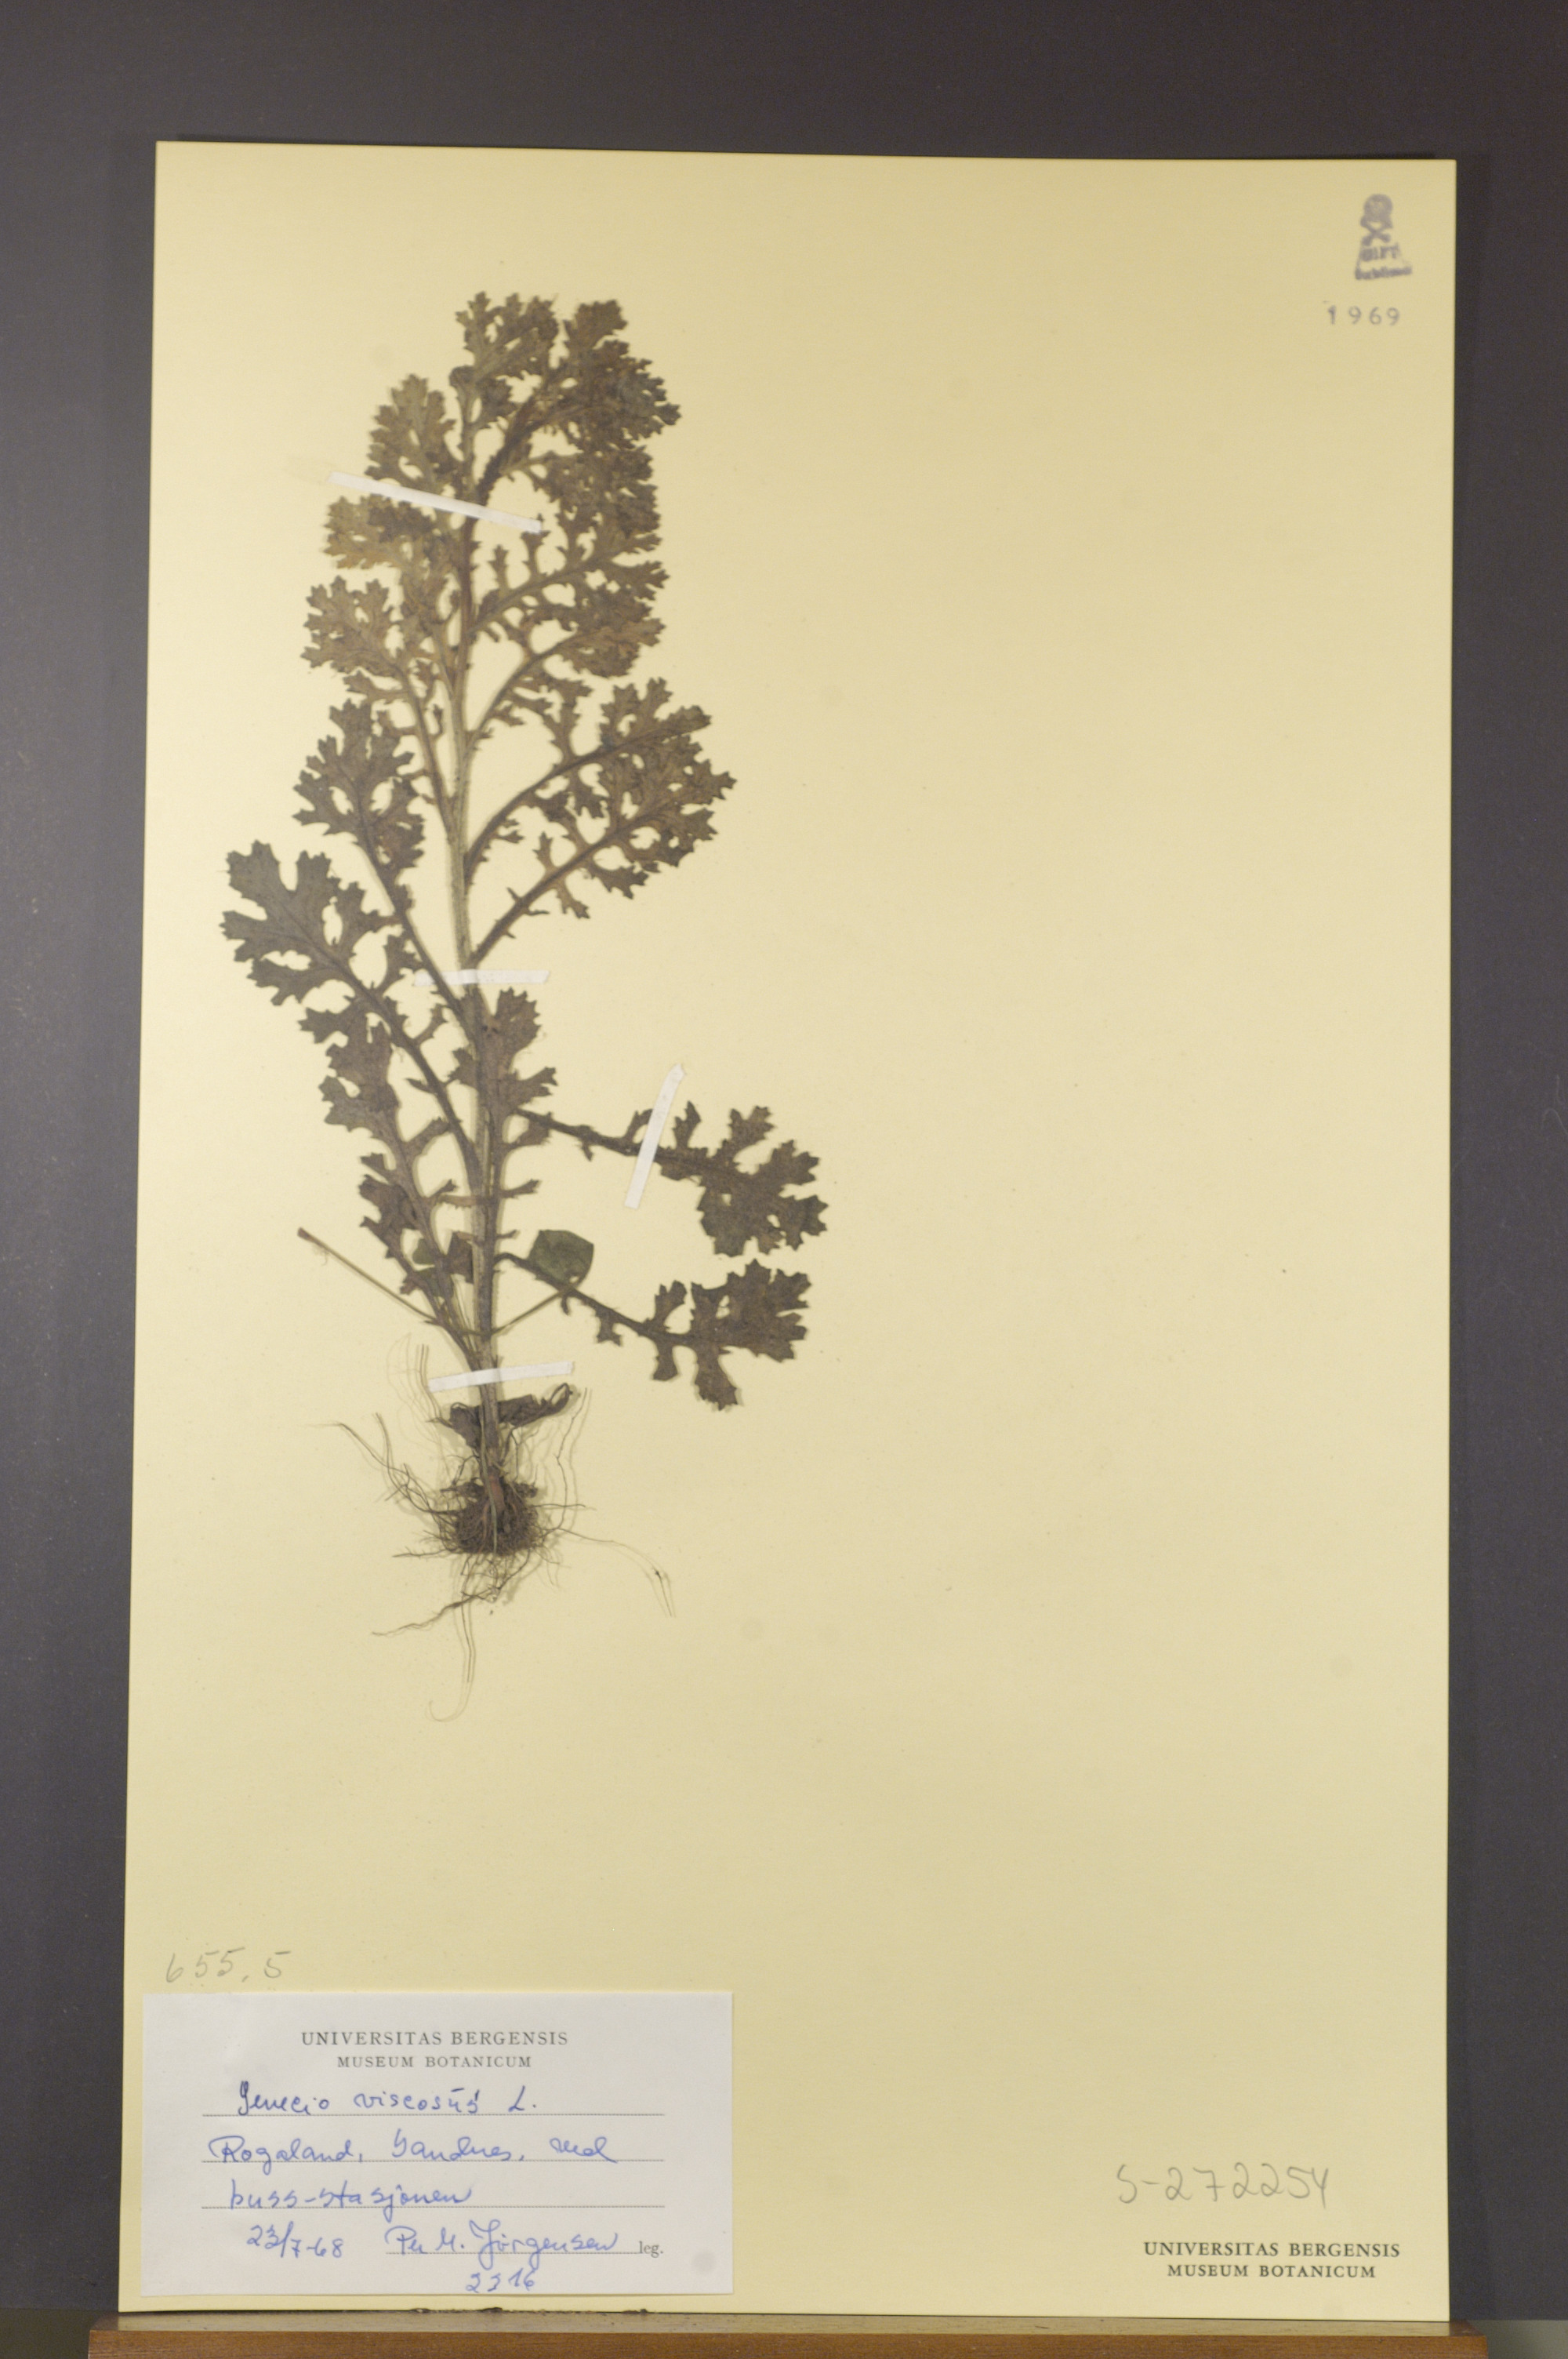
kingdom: Plantae
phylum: Tracheophyta
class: Magnoliopsida
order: Asterales
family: Asteraceae
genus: Senecio
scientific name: Senecio viscosus
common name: Sticky groundsel
